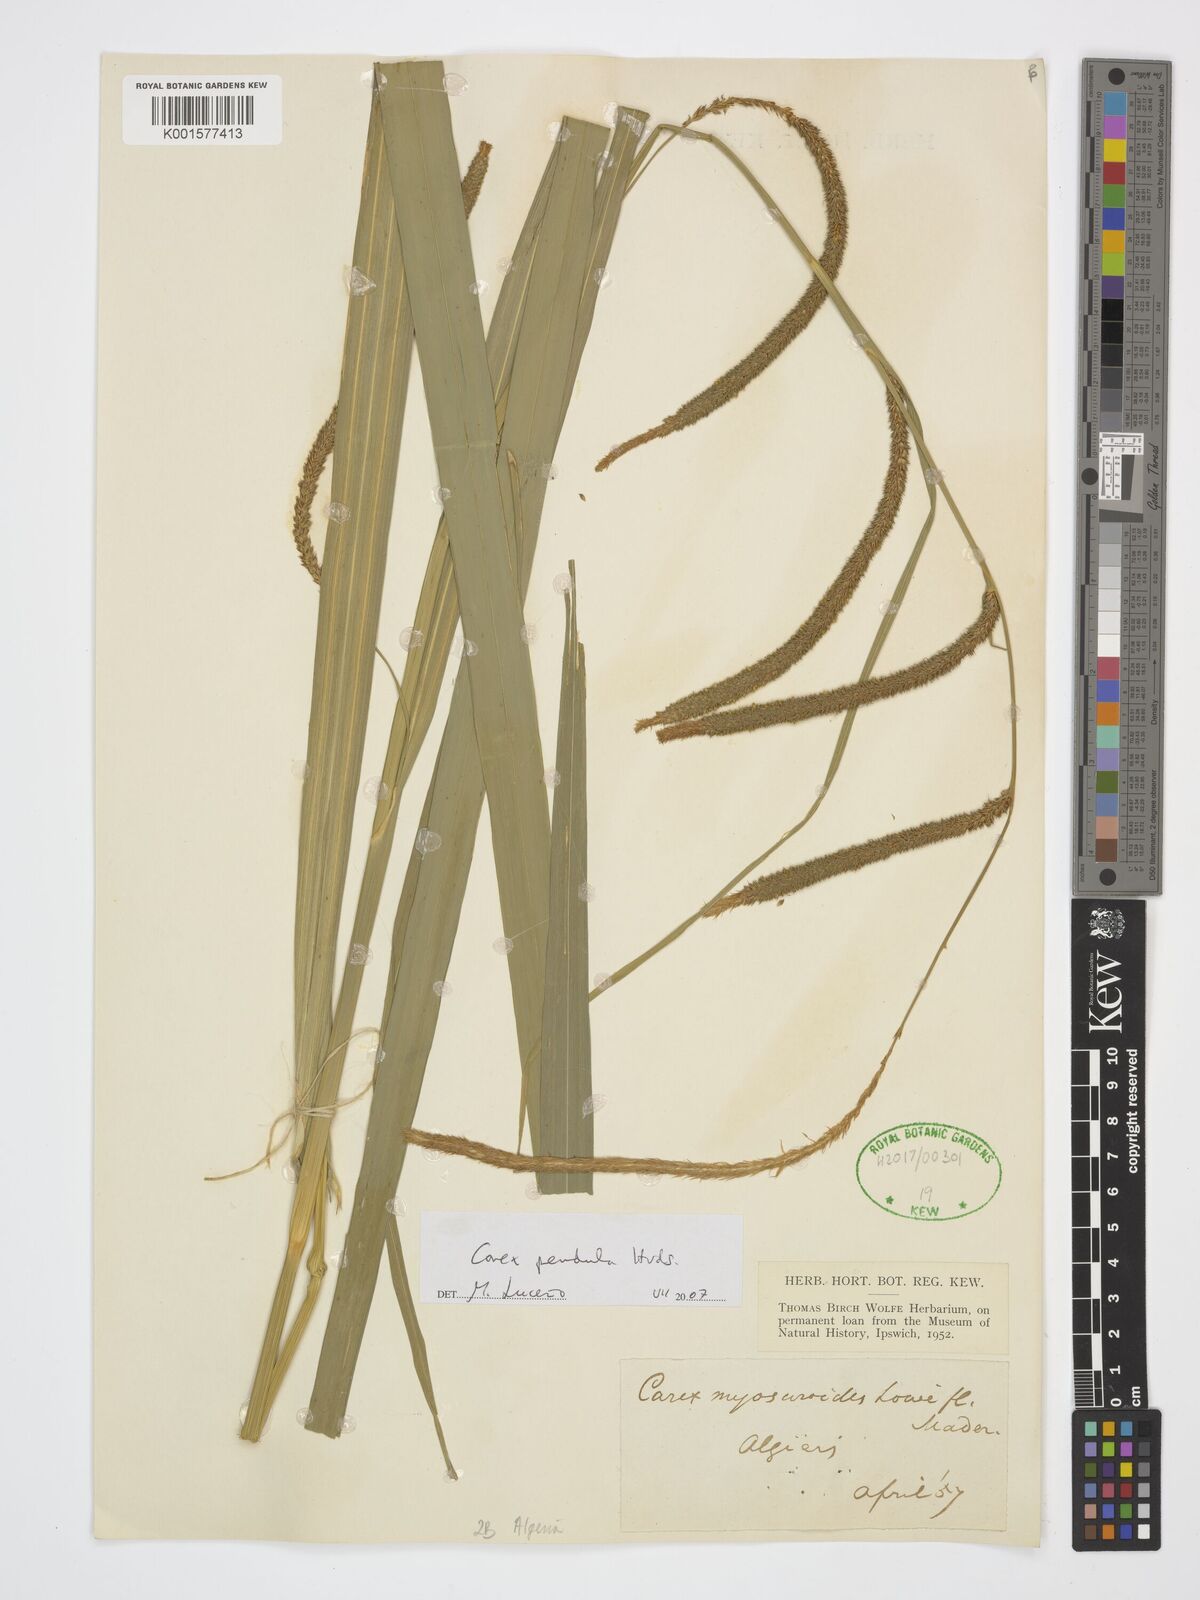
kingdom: Plantae
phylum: Tracheophyta
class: Liliopsida
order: Poales
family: Cyperaceae
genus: Carex
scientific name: Carex pendula
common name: Pendulous sedge
